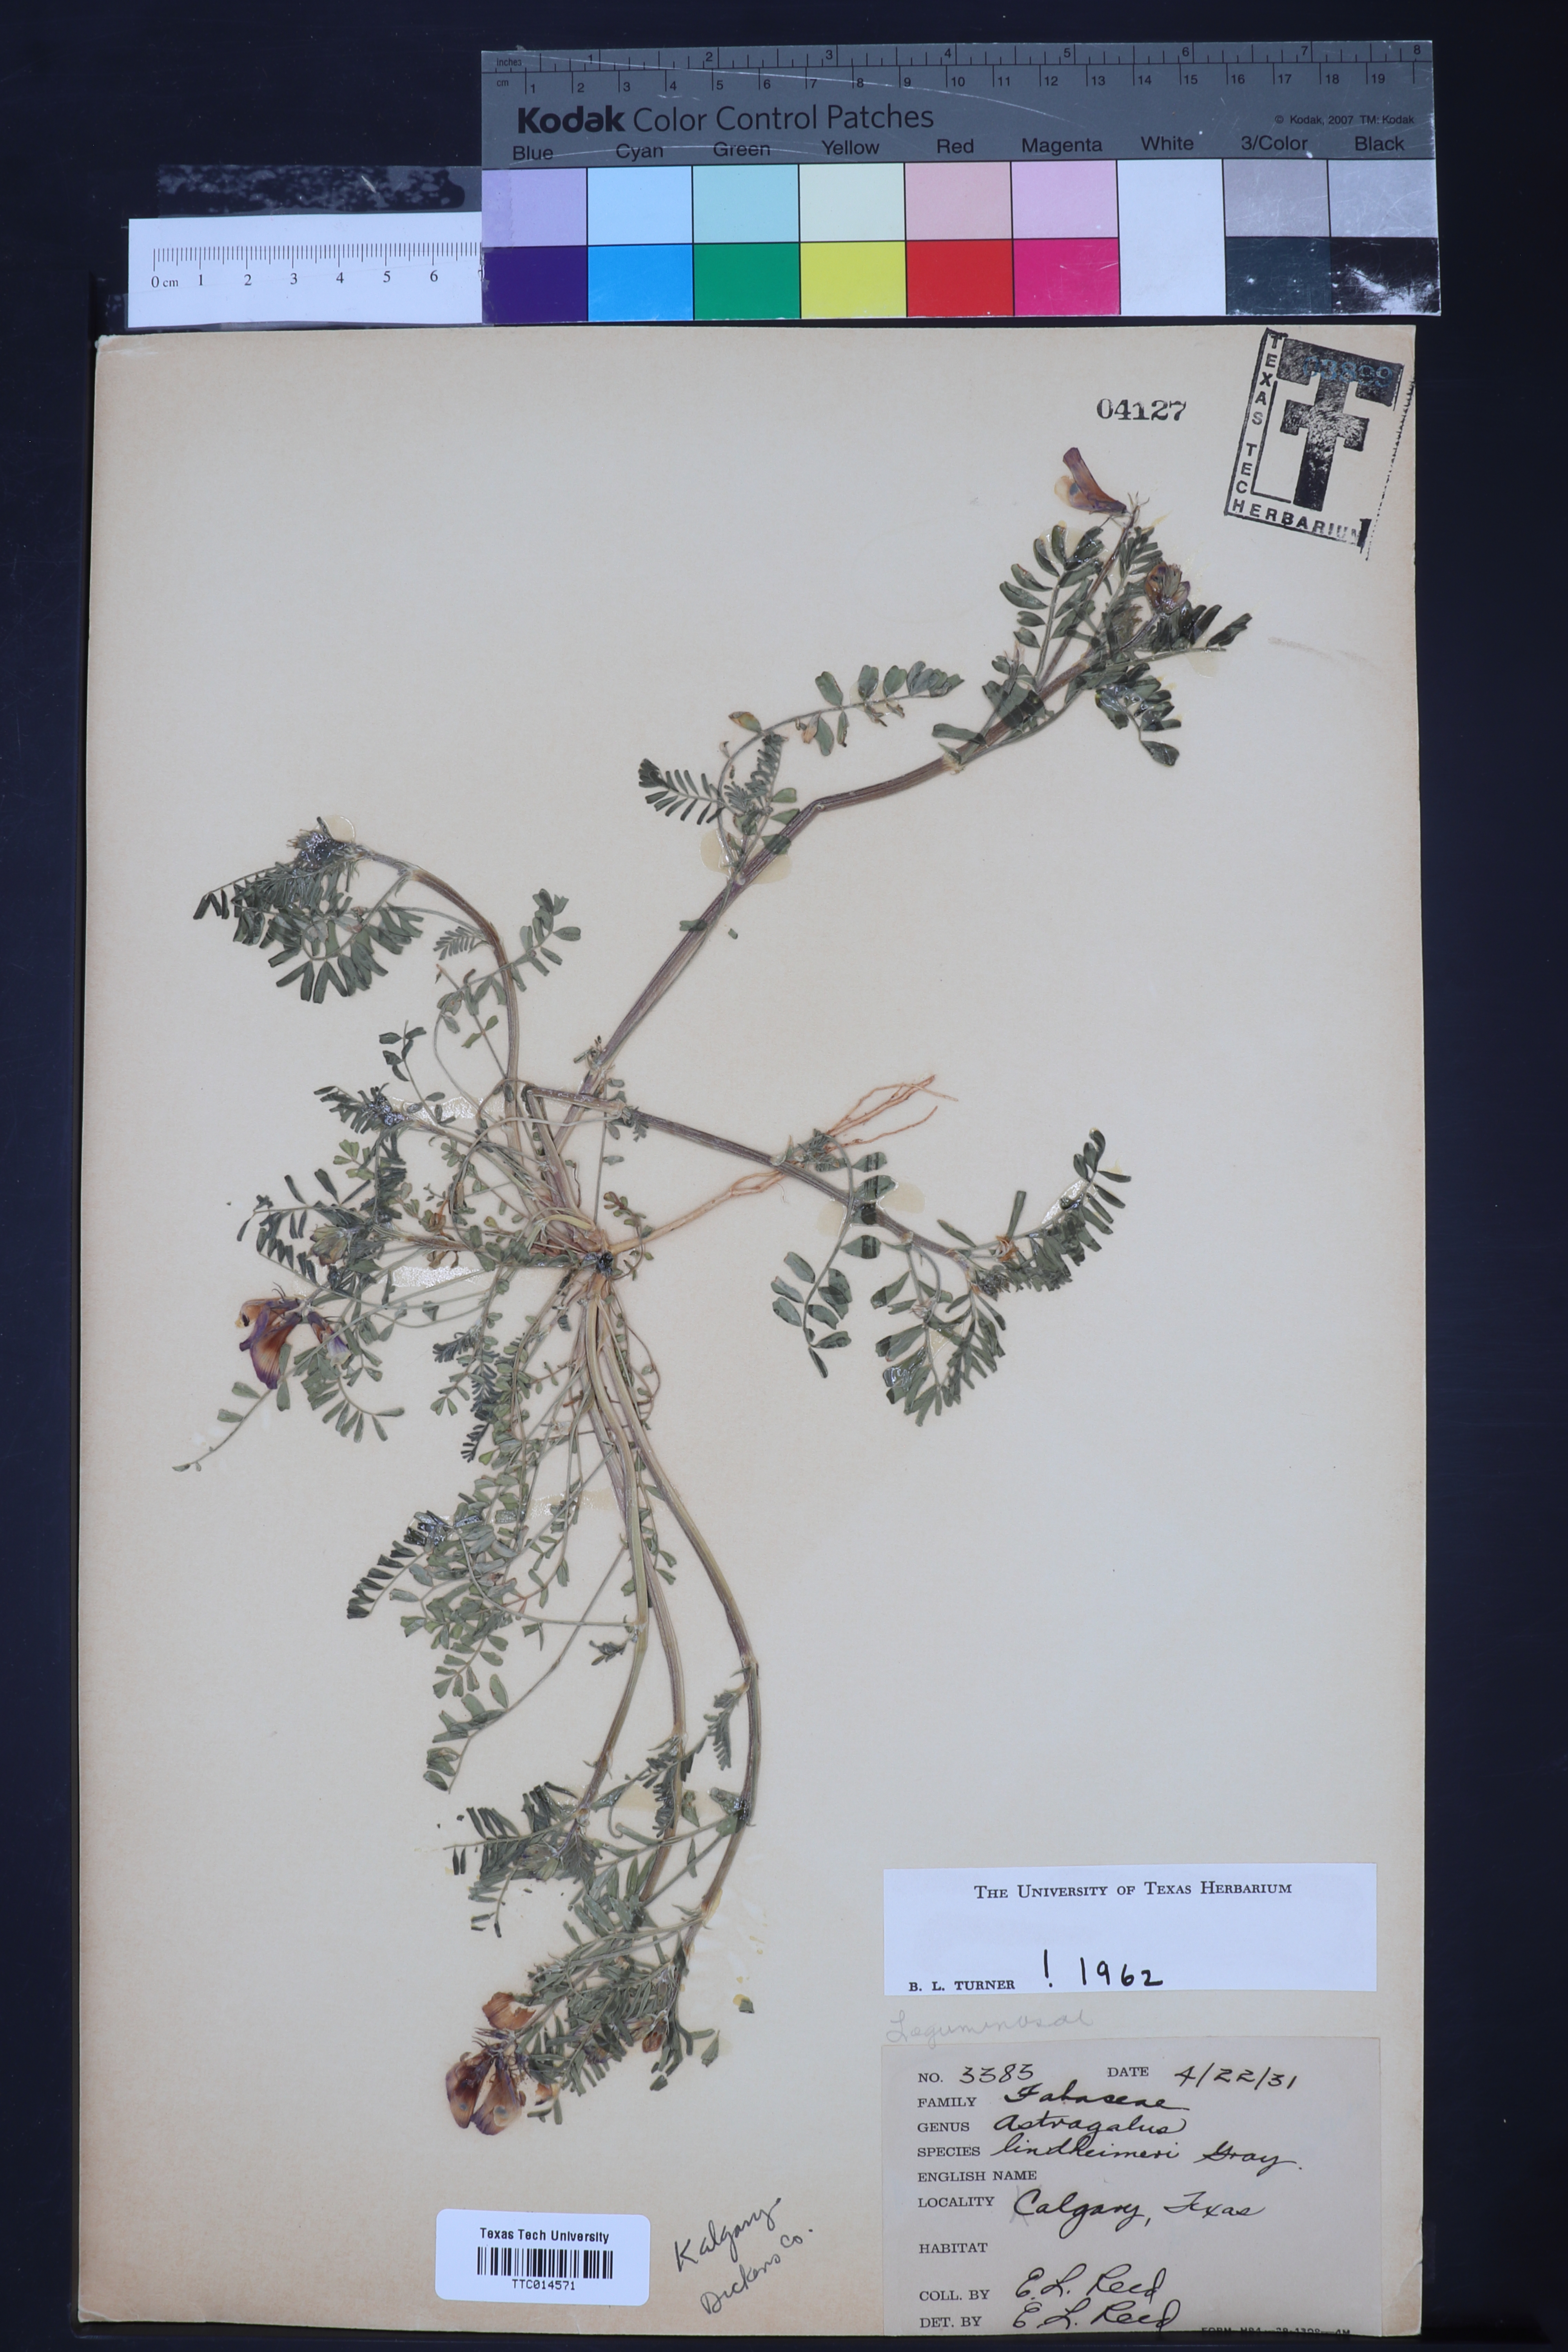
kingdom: Plantae
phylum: Tracheophyta
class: Magnoliopsida
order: Fabales
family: Fabaceae
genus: Astragalus
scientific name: Astragalus lindheimeri
